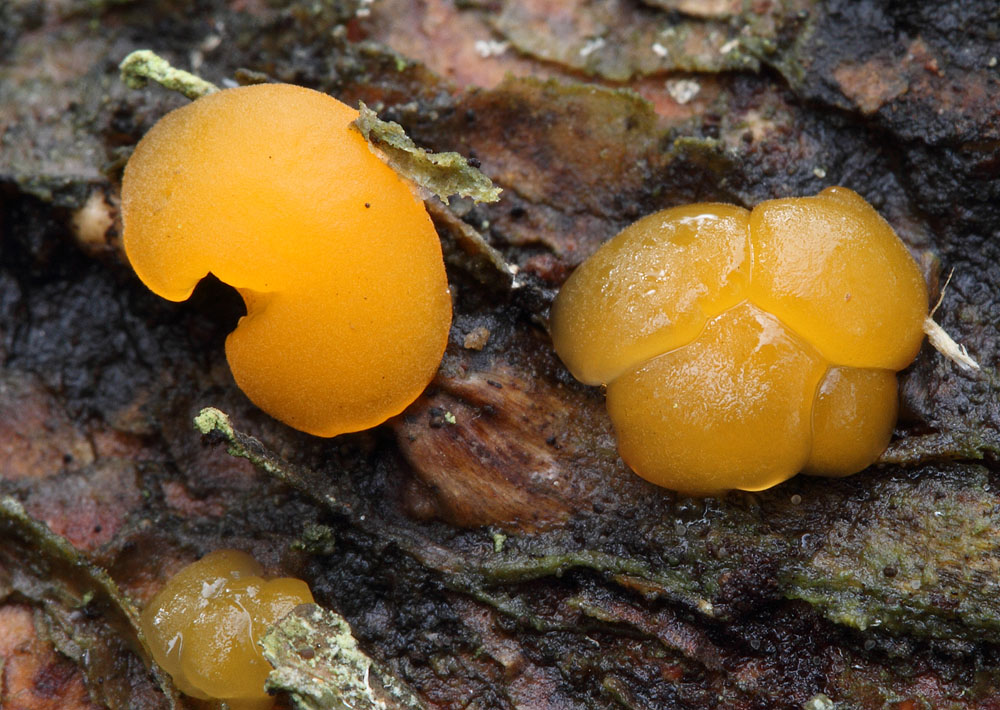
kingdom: Fungi
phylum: Basidiomycota
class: Dacrymycetes
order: Dacrymycetales
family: Dacrymycetaceae
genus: Ditiola
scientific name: Ditiola radicata
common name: rod-tåresvamp
